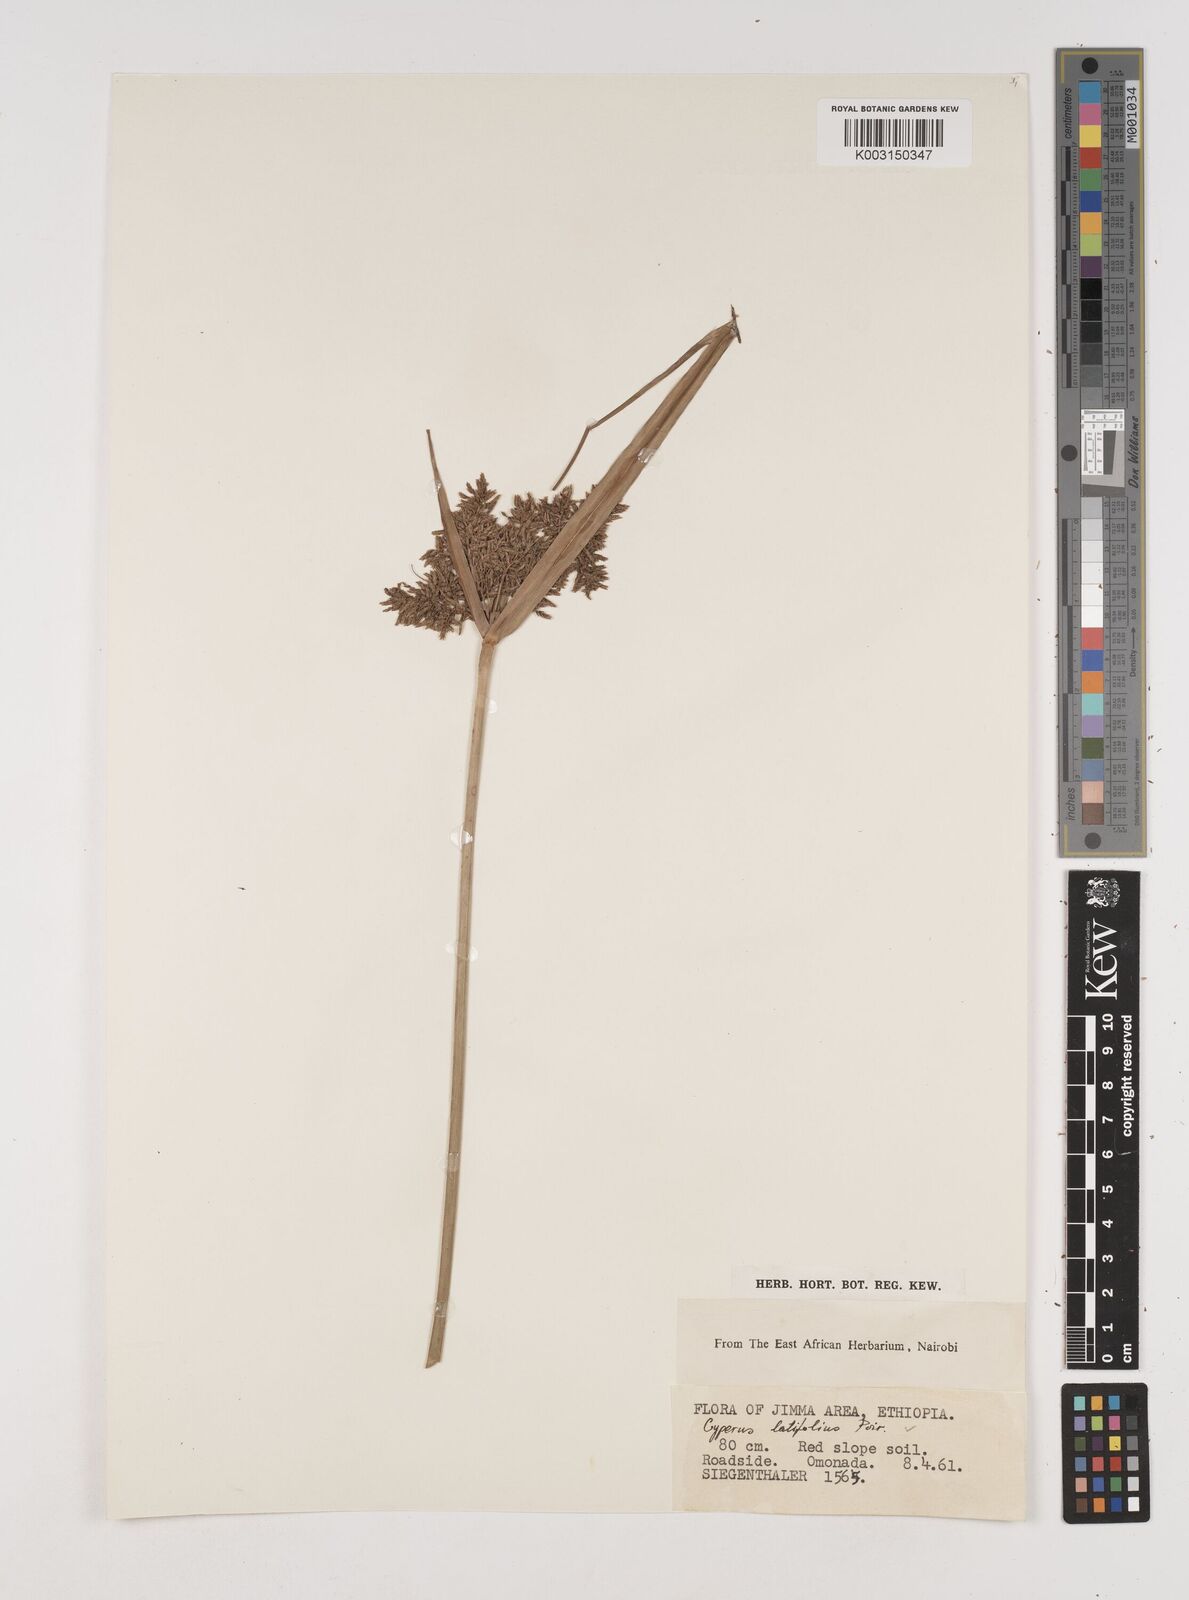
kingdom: Plantae
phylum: Tracheophyta
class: Liliopsida
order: Poales
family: Cyperaceae
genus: Cyperus
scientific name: Cyperus latifolius
